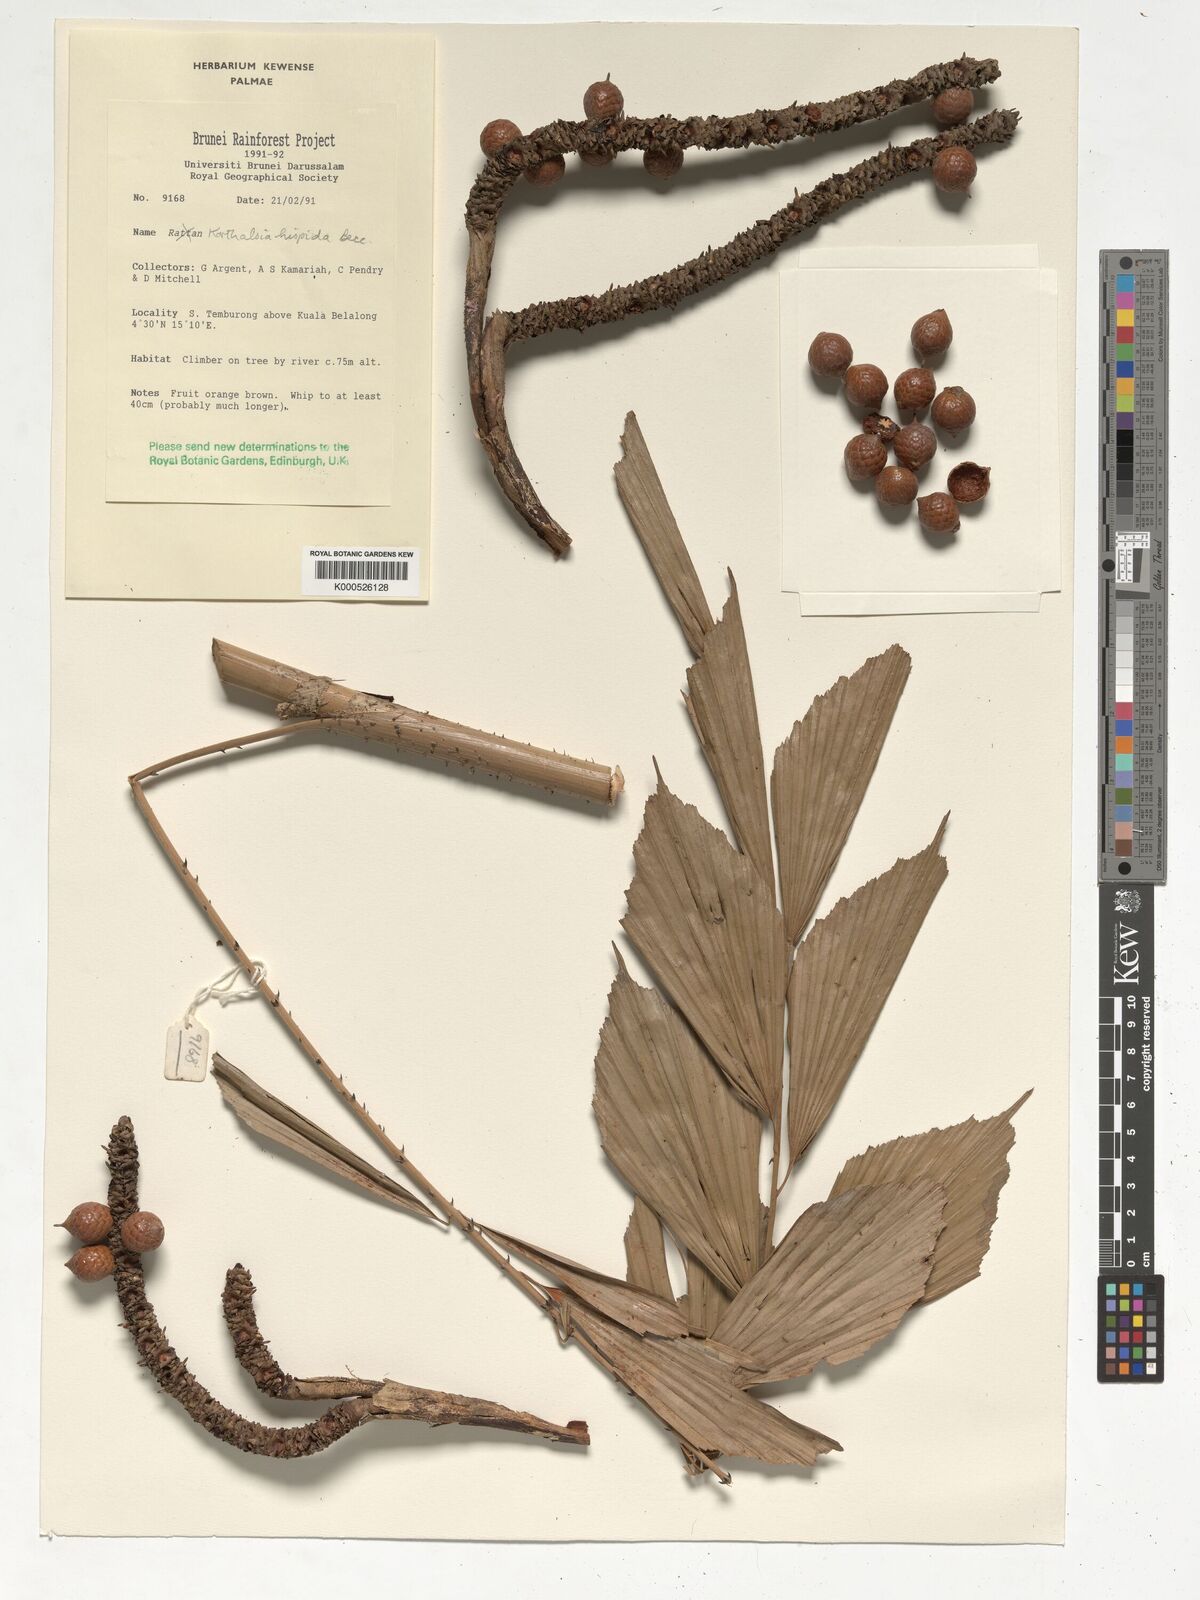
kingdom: Plantae
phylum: Tracheophyta
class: Liliopsida
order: Arecales
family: Arecaceae
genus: Korthalsia
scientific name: Korthalsia hispida
